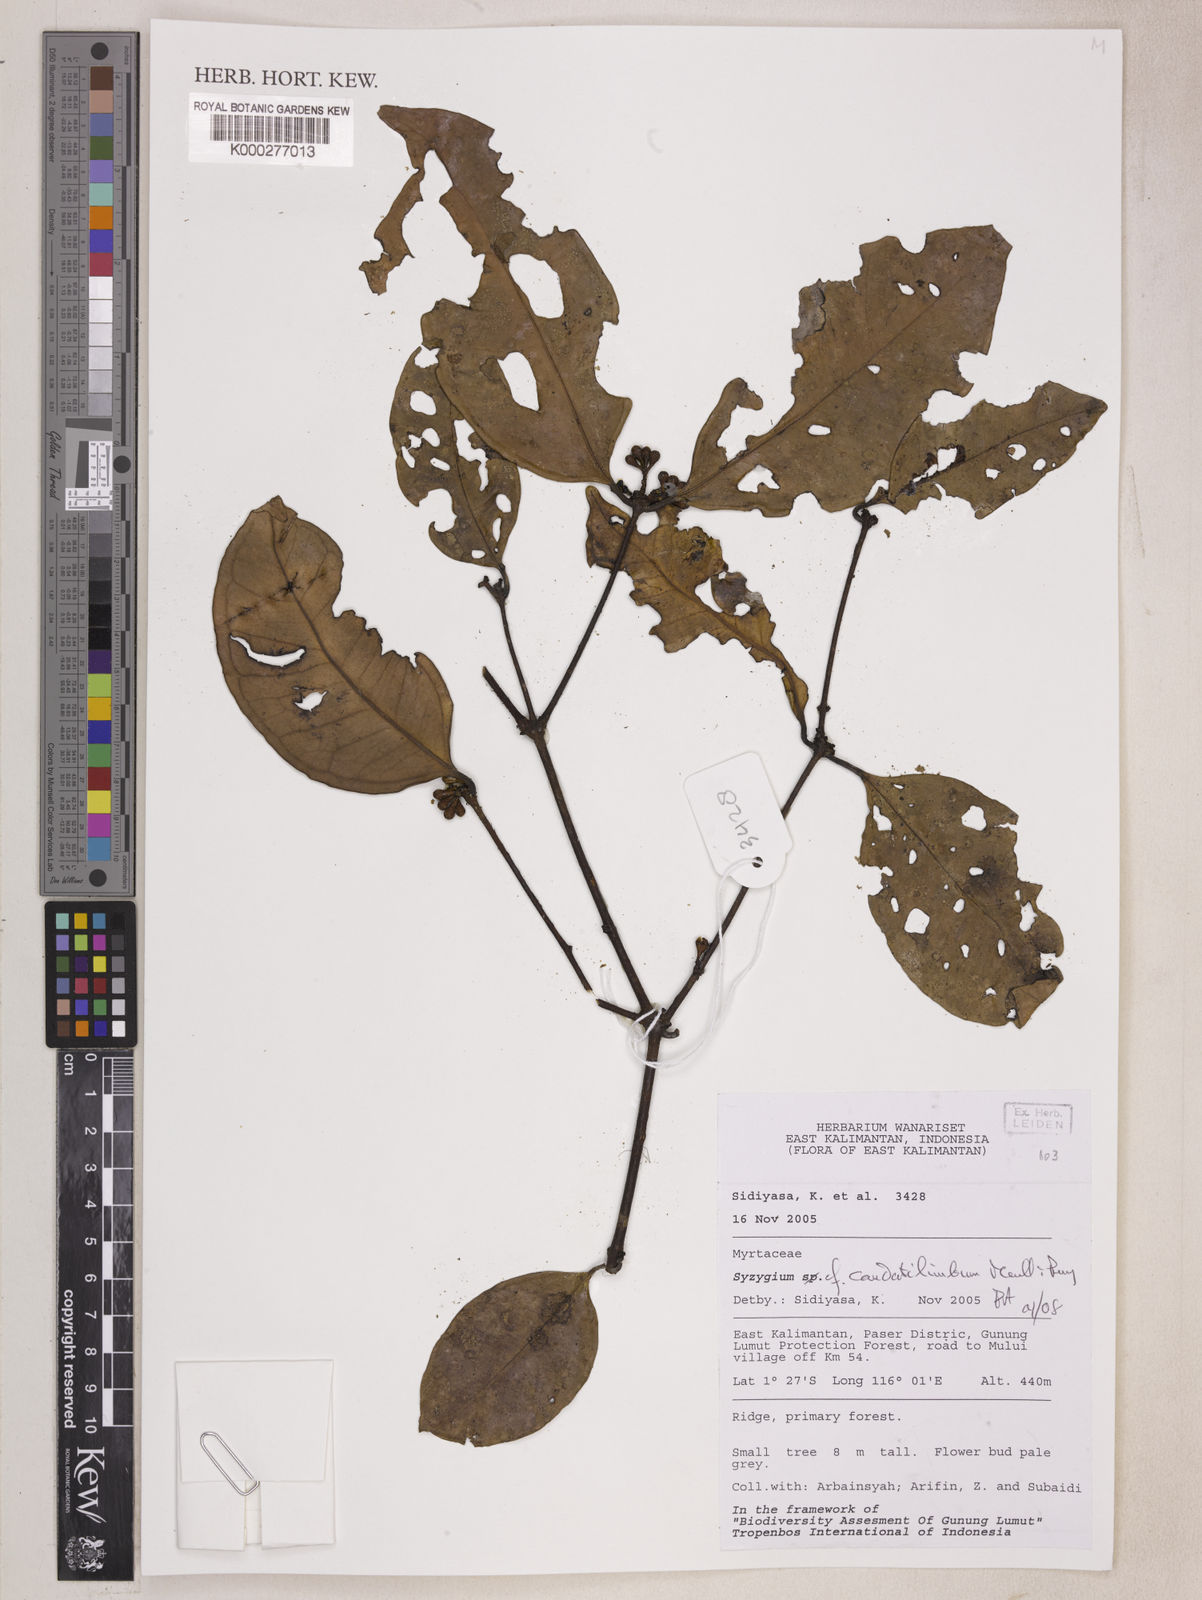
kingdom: Plantae
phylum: Tracheophyta
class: Magnoliopsida
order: Myrtales
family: Myrtaceae
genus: Syzygium
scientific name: Syzygium caudatilimbum
